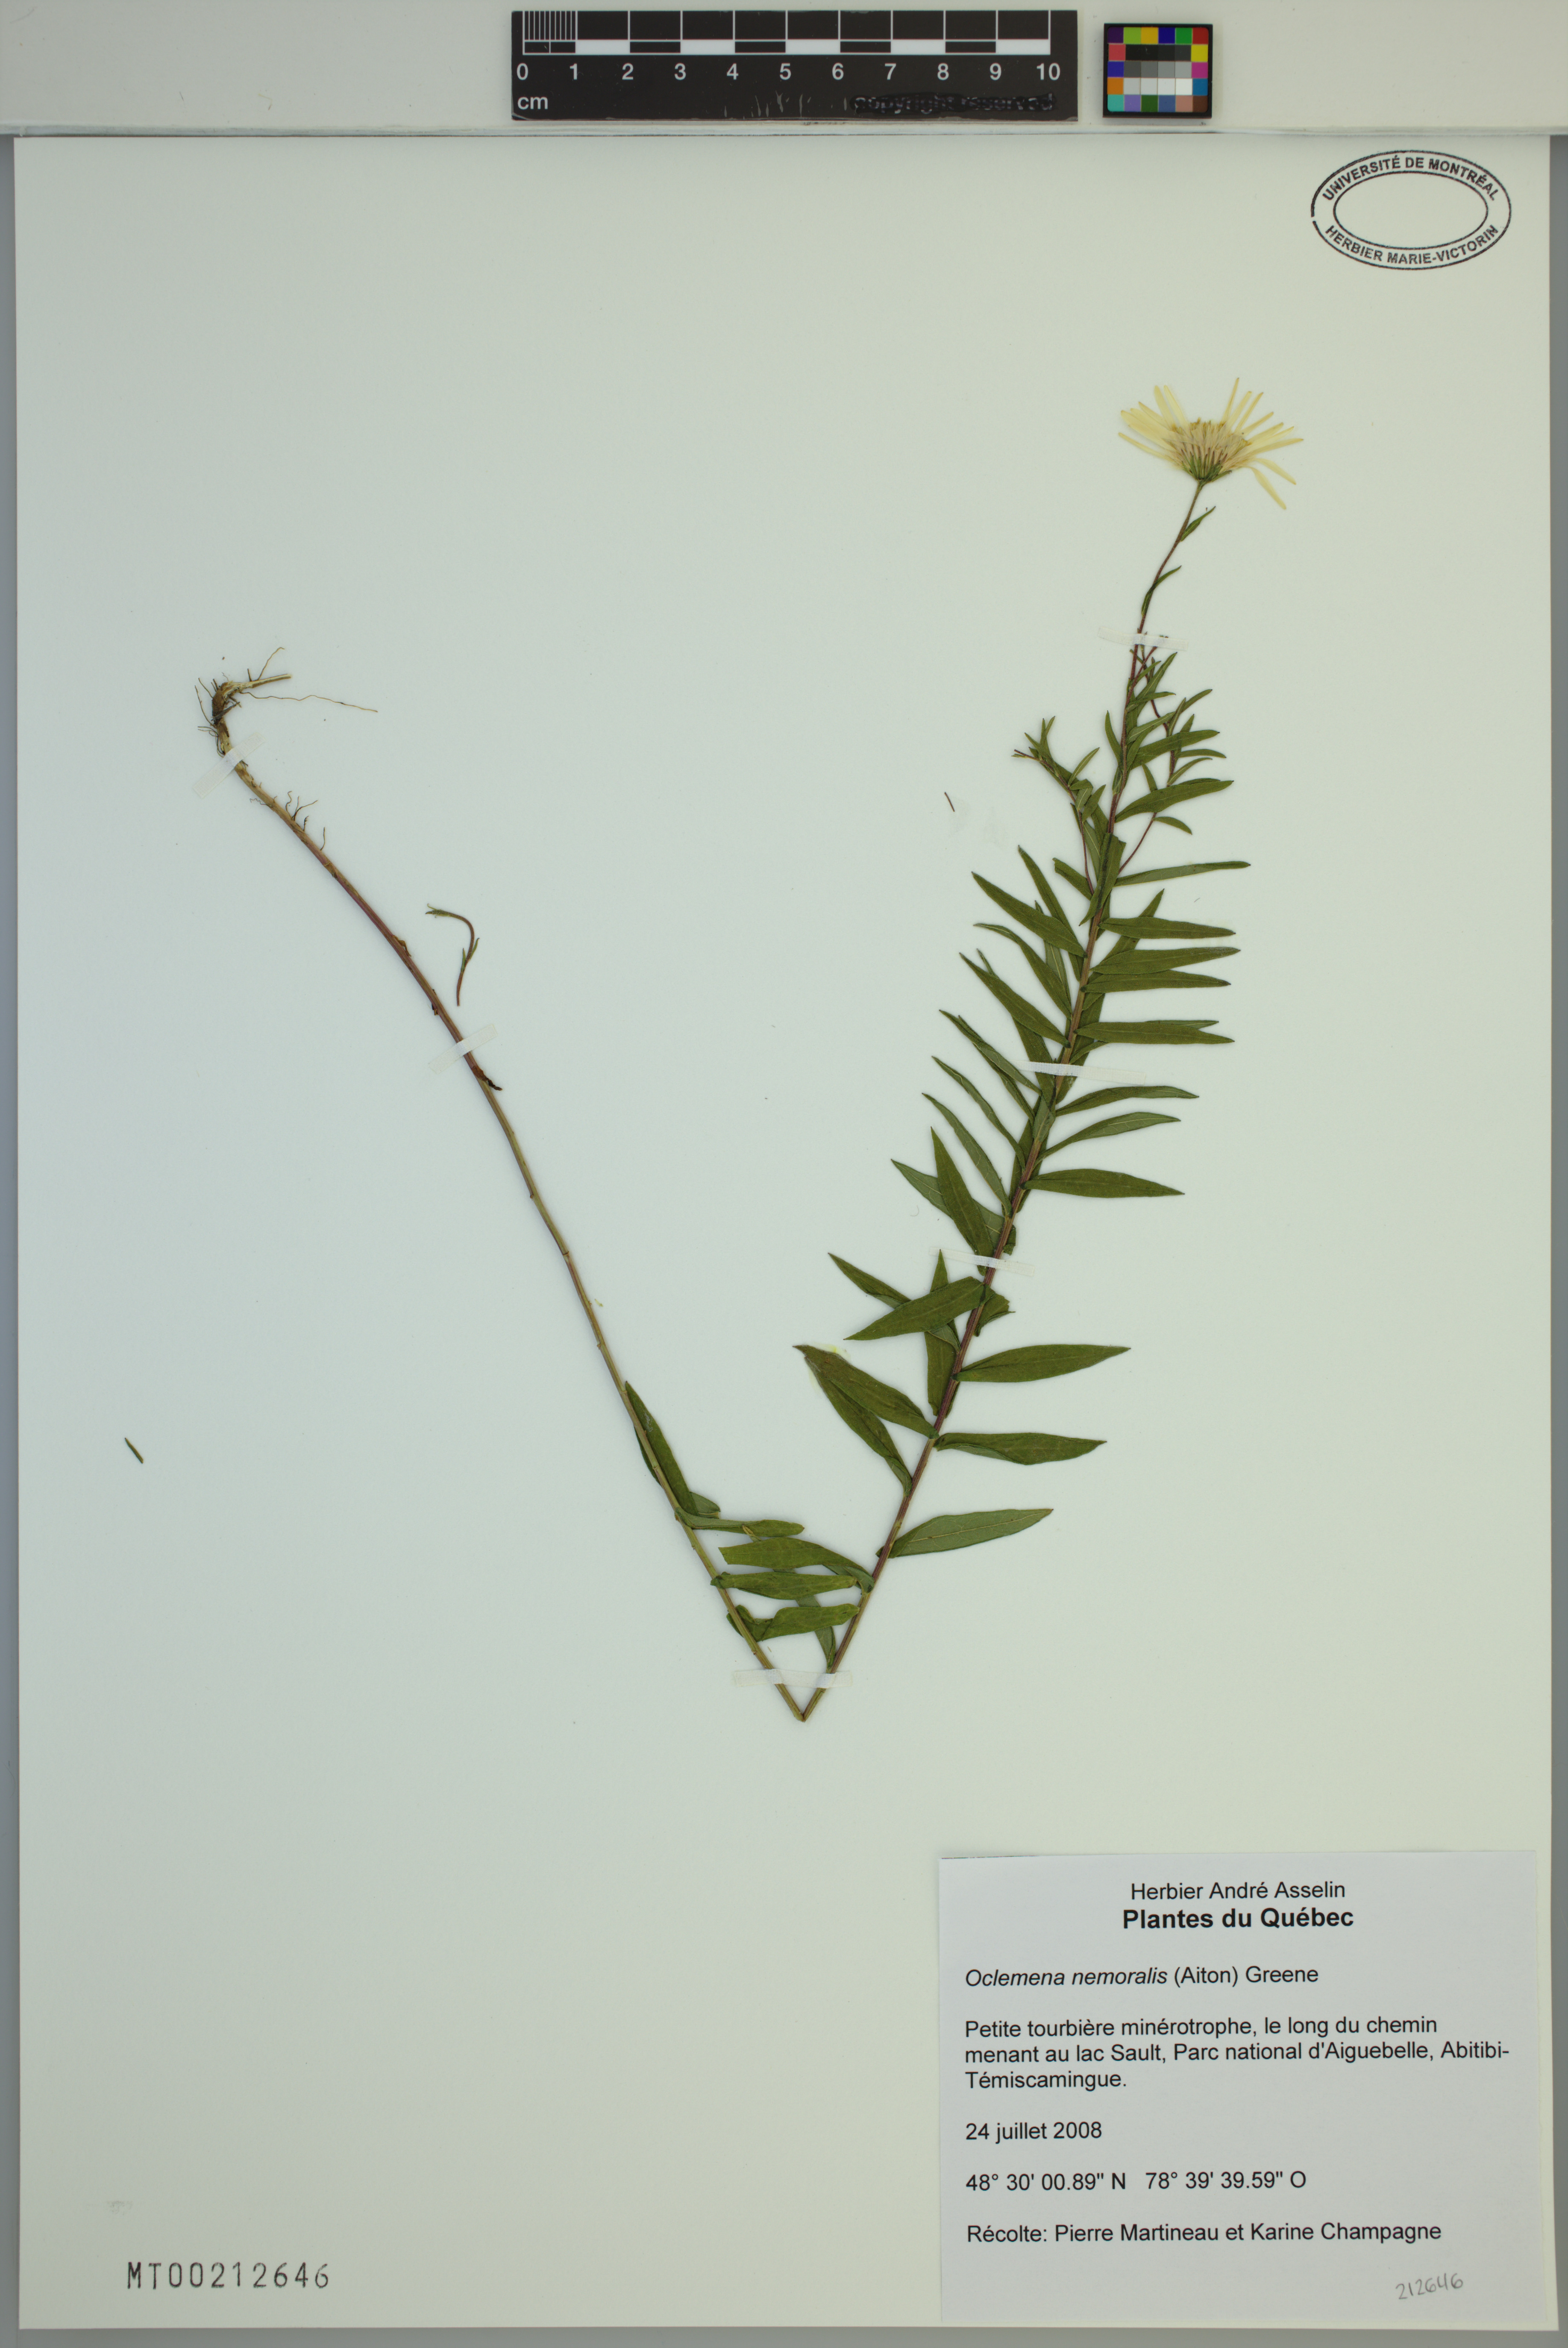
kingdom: Plantae
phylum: Tracheophyta
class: Magnoliopsida
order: Asterales
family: Asteraceae
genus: Oclemena
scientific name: Oclemena nemoralis
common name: Bog aster
